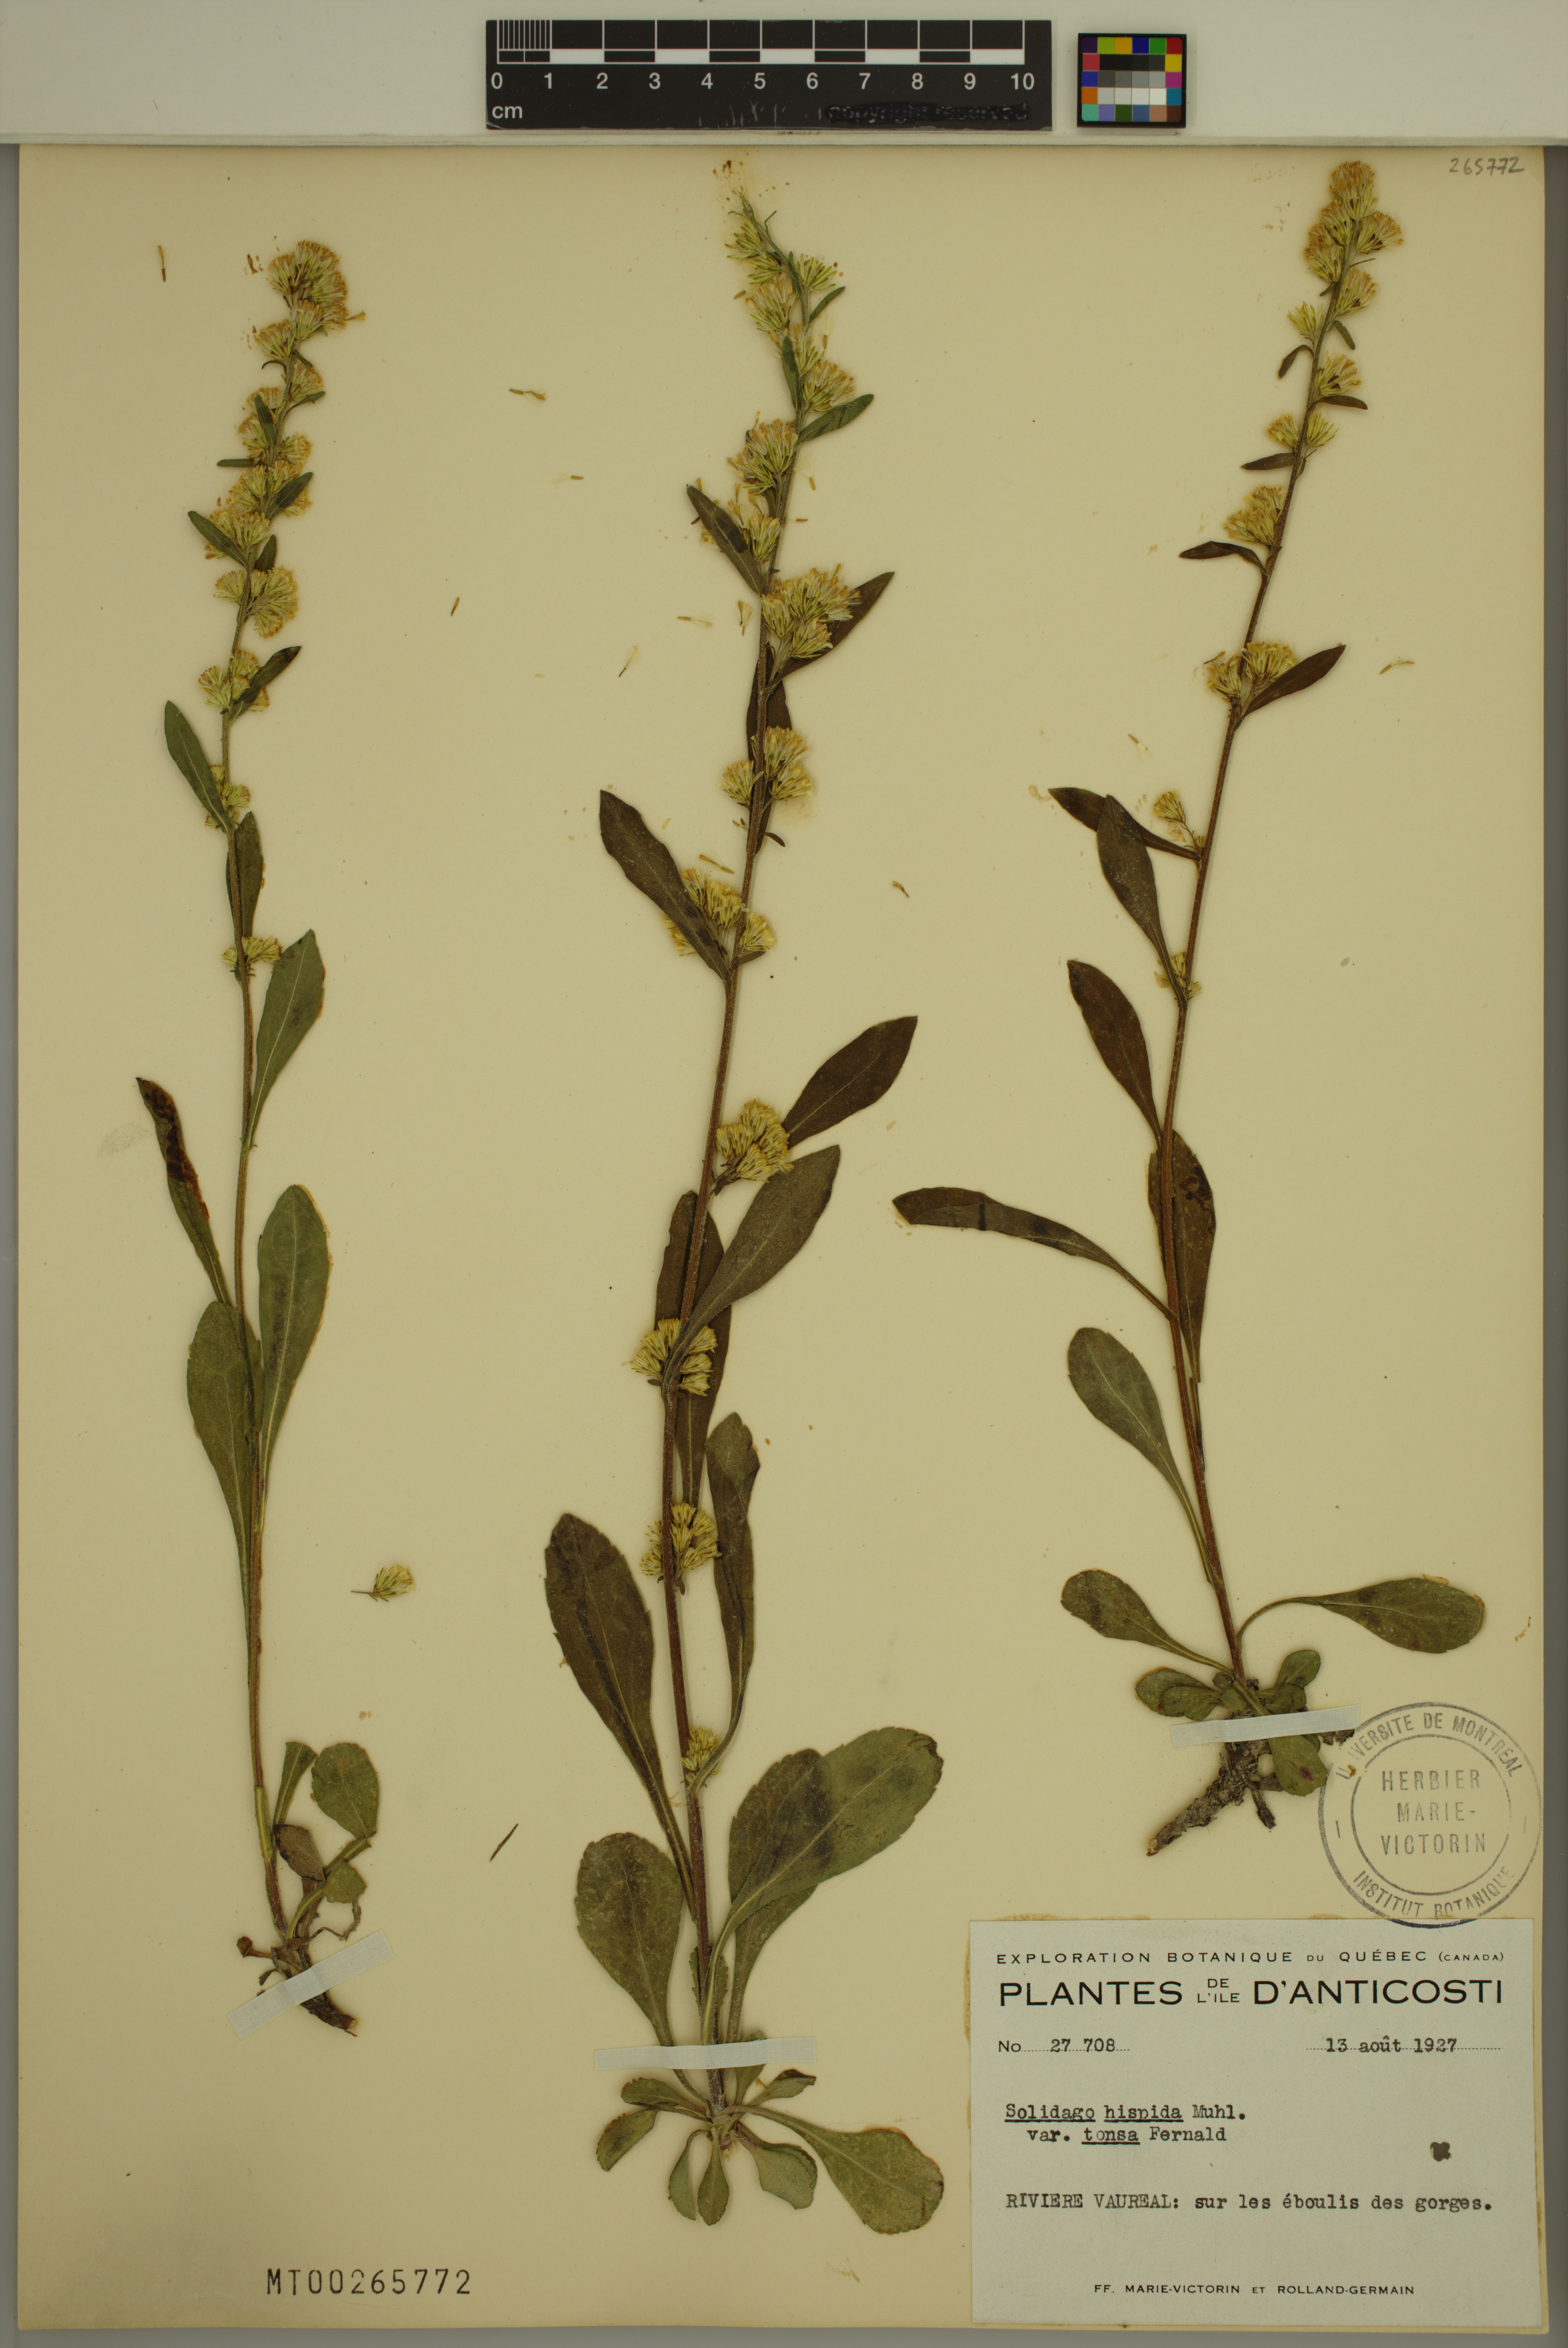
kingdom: Plantae
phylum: Tracheophyta
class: Magnoliopsida
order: Asterales
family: Asteraceae
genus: Solidago
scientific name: Solidago hispida
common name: Hairy goldenrod
